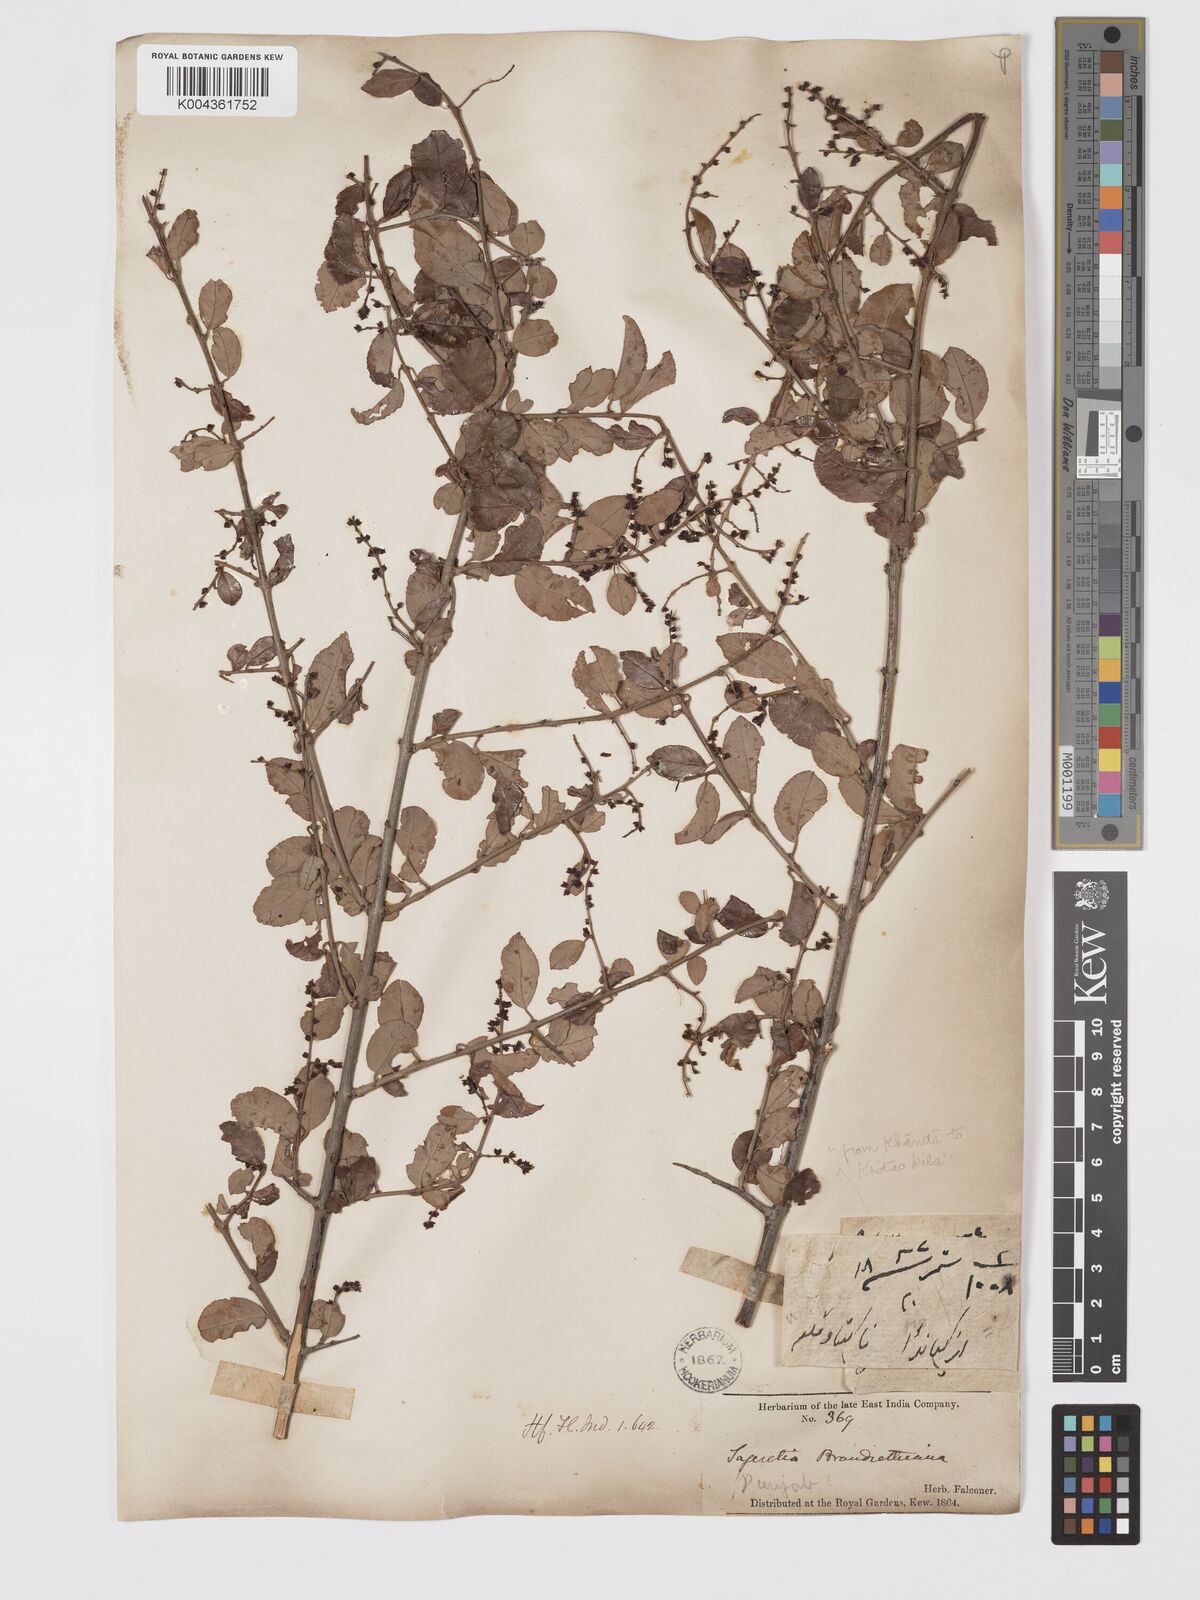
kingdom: Plantae
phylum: Tracheophyta
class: Magnoliopsida
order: Rosales
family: Rhamnaceae
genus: Sageretia
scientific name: Sageretia brandrethiana
